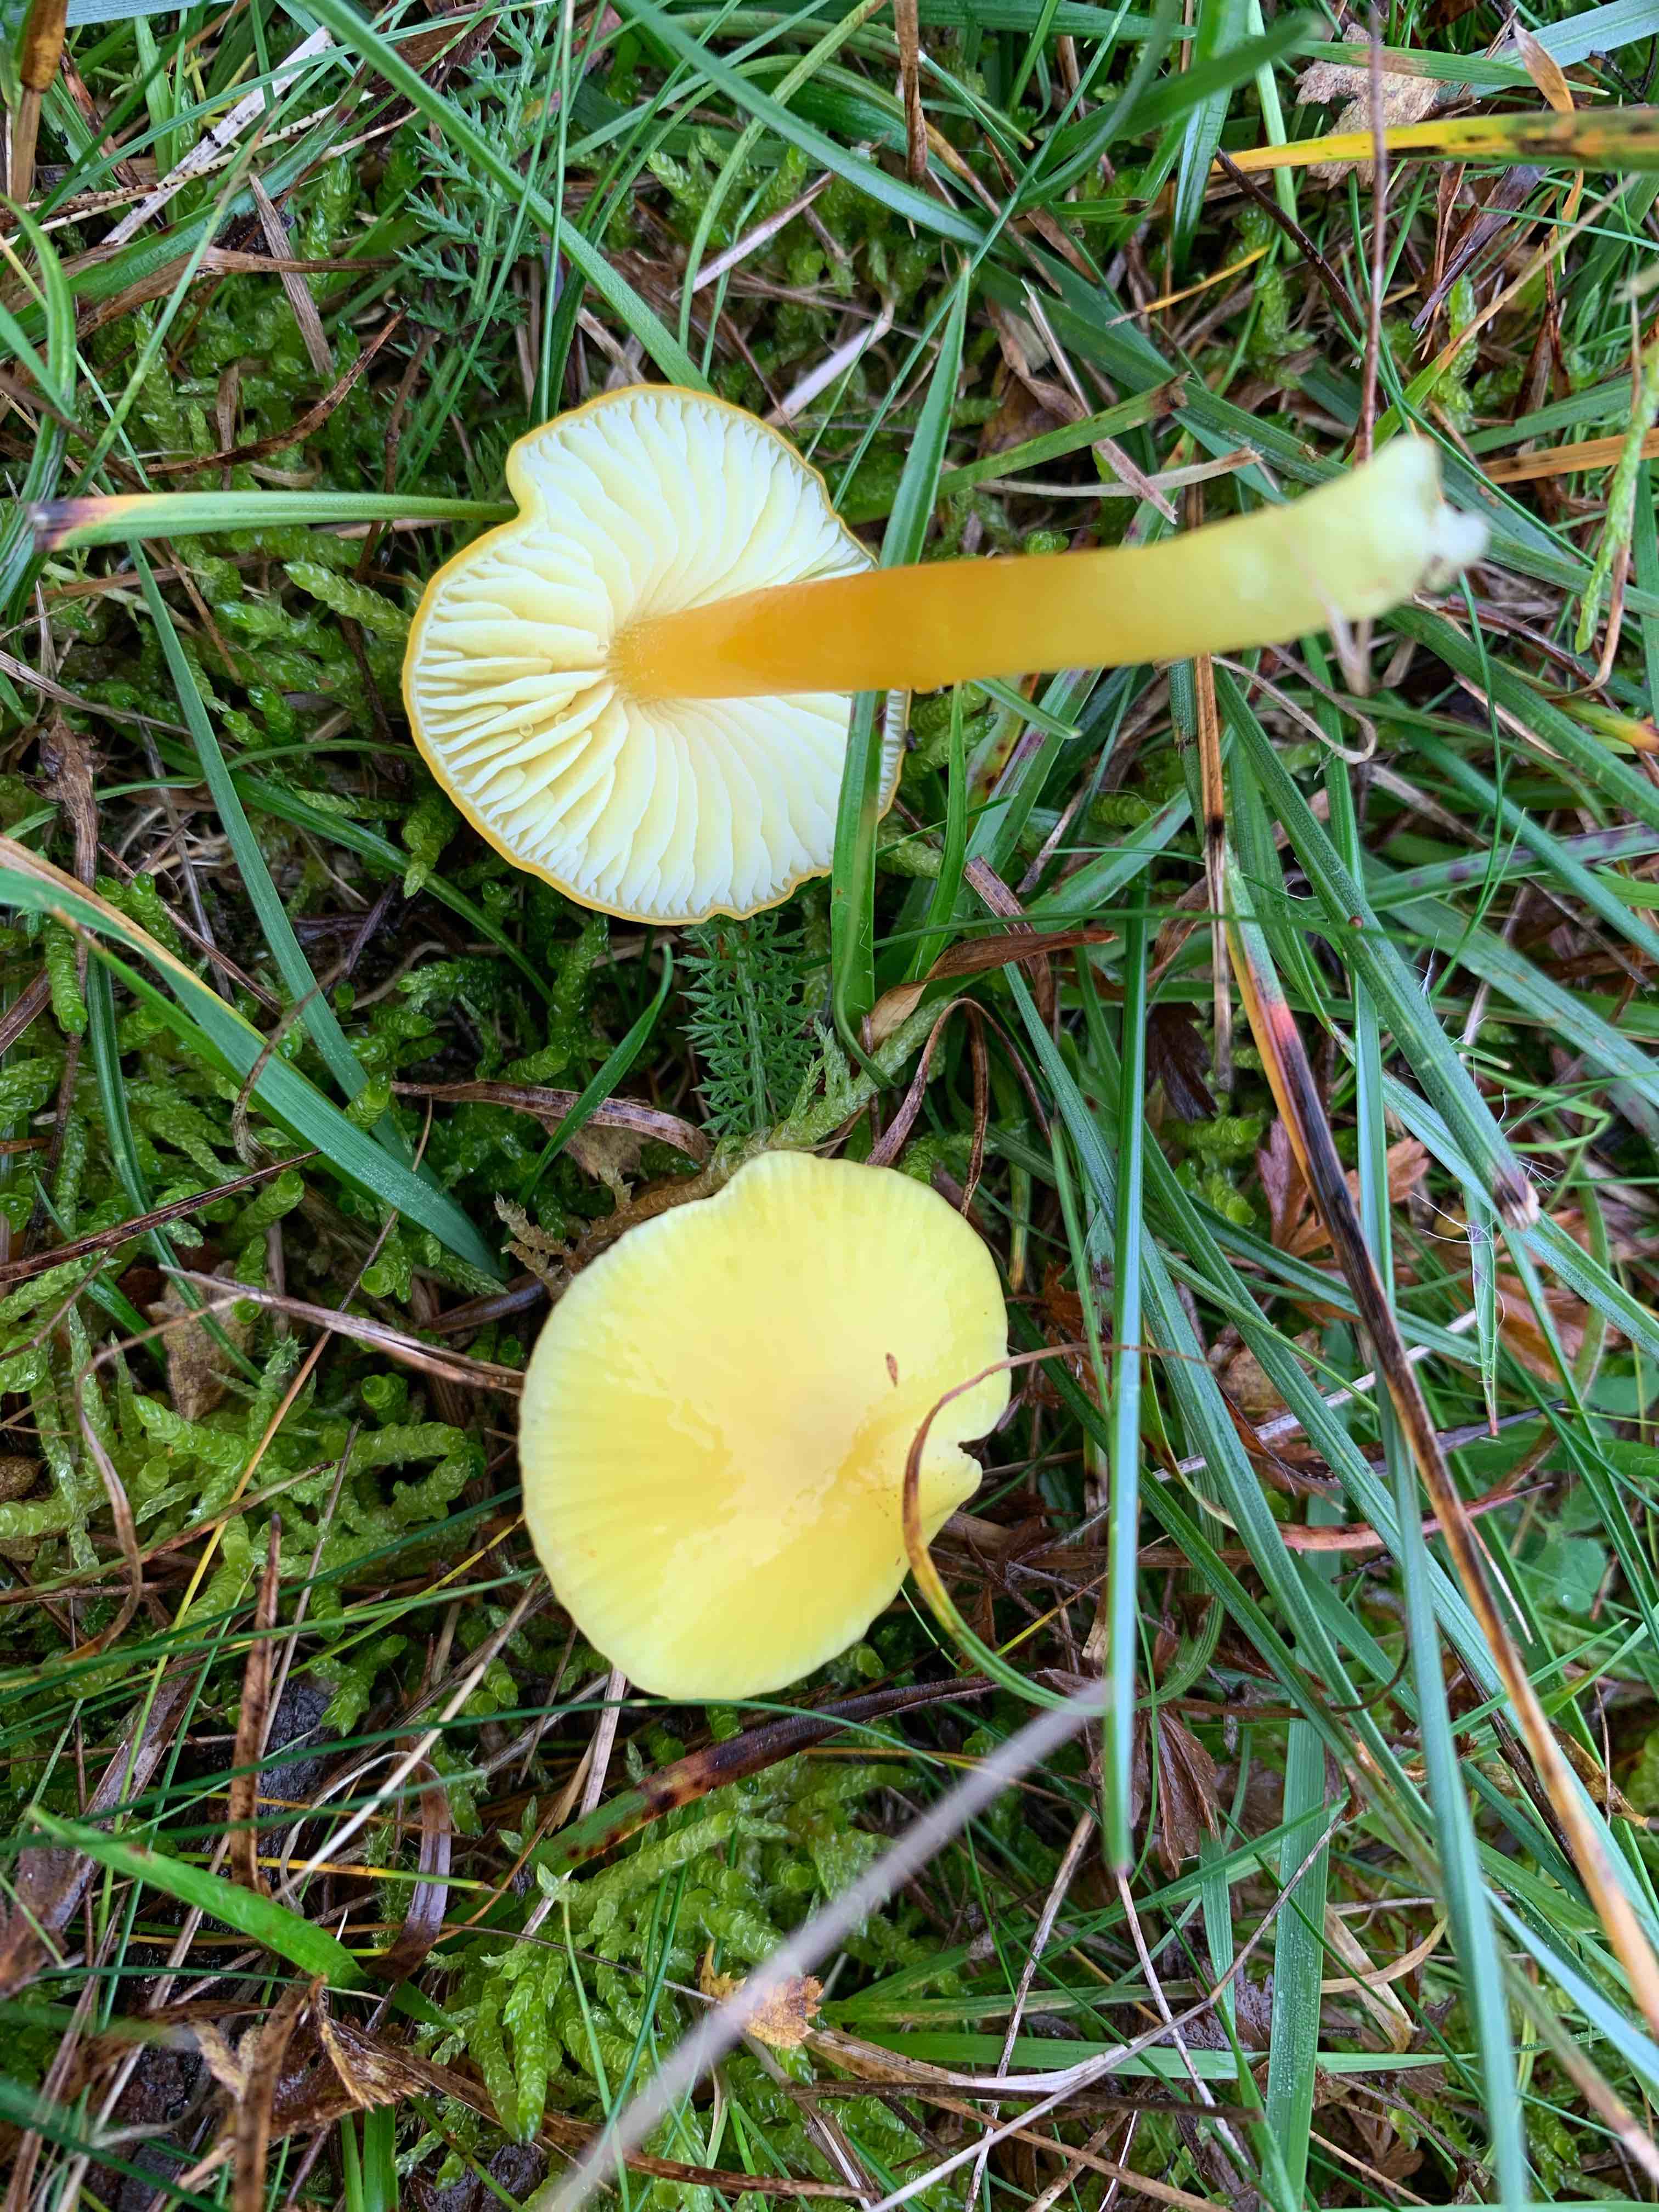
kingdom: Fungi
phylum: Basidiomycota
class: Agaricomycetes
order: Agaricales
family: Hygrophoraceae
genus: Hygrocybe
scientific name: Hygrocybe chlorophana
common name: gul vokshat
